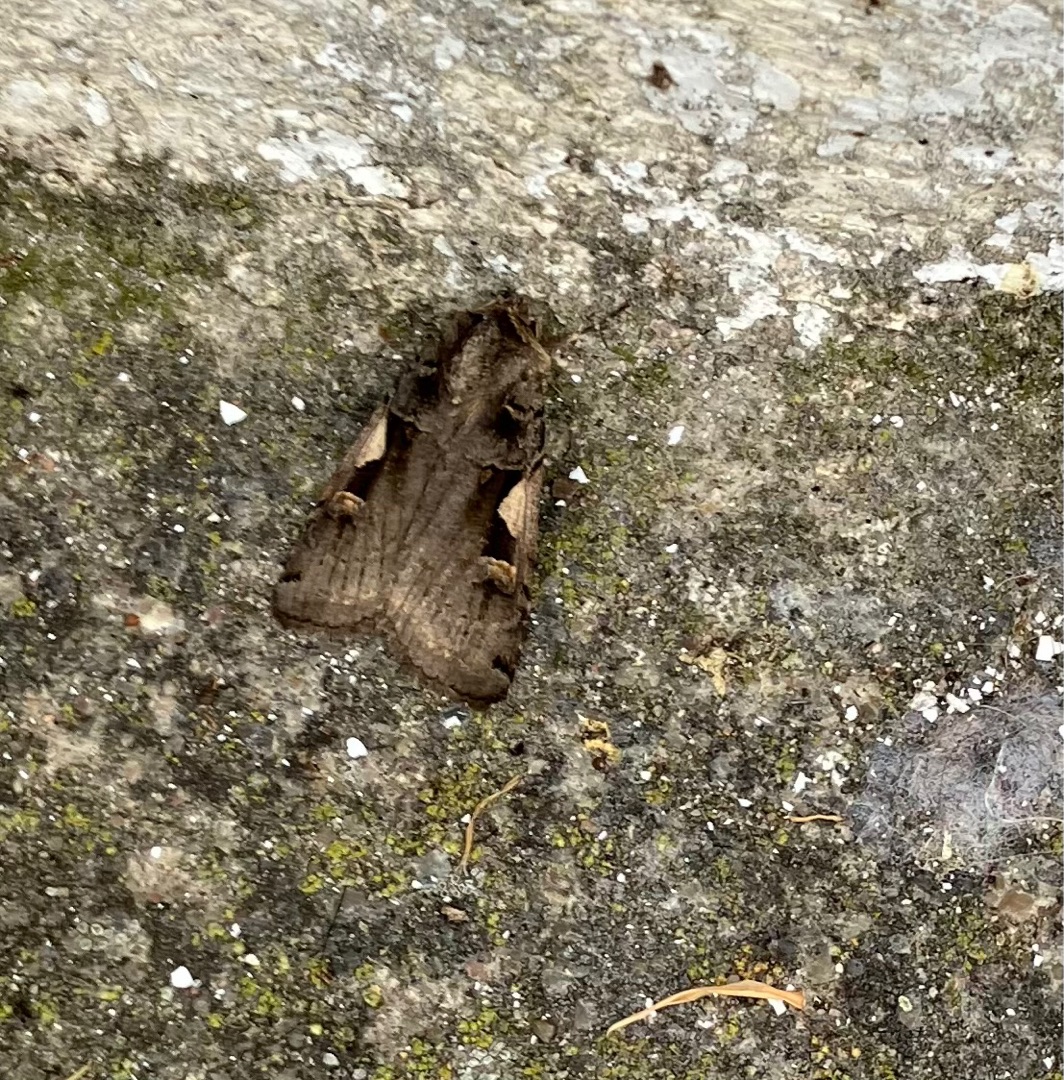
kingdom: Animalia
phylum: Arthropoda
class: Insecta
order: Lepidoptera
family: Noctuidae
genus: Xestia
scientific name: Xestia c-nigrum
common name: Det sorte c
